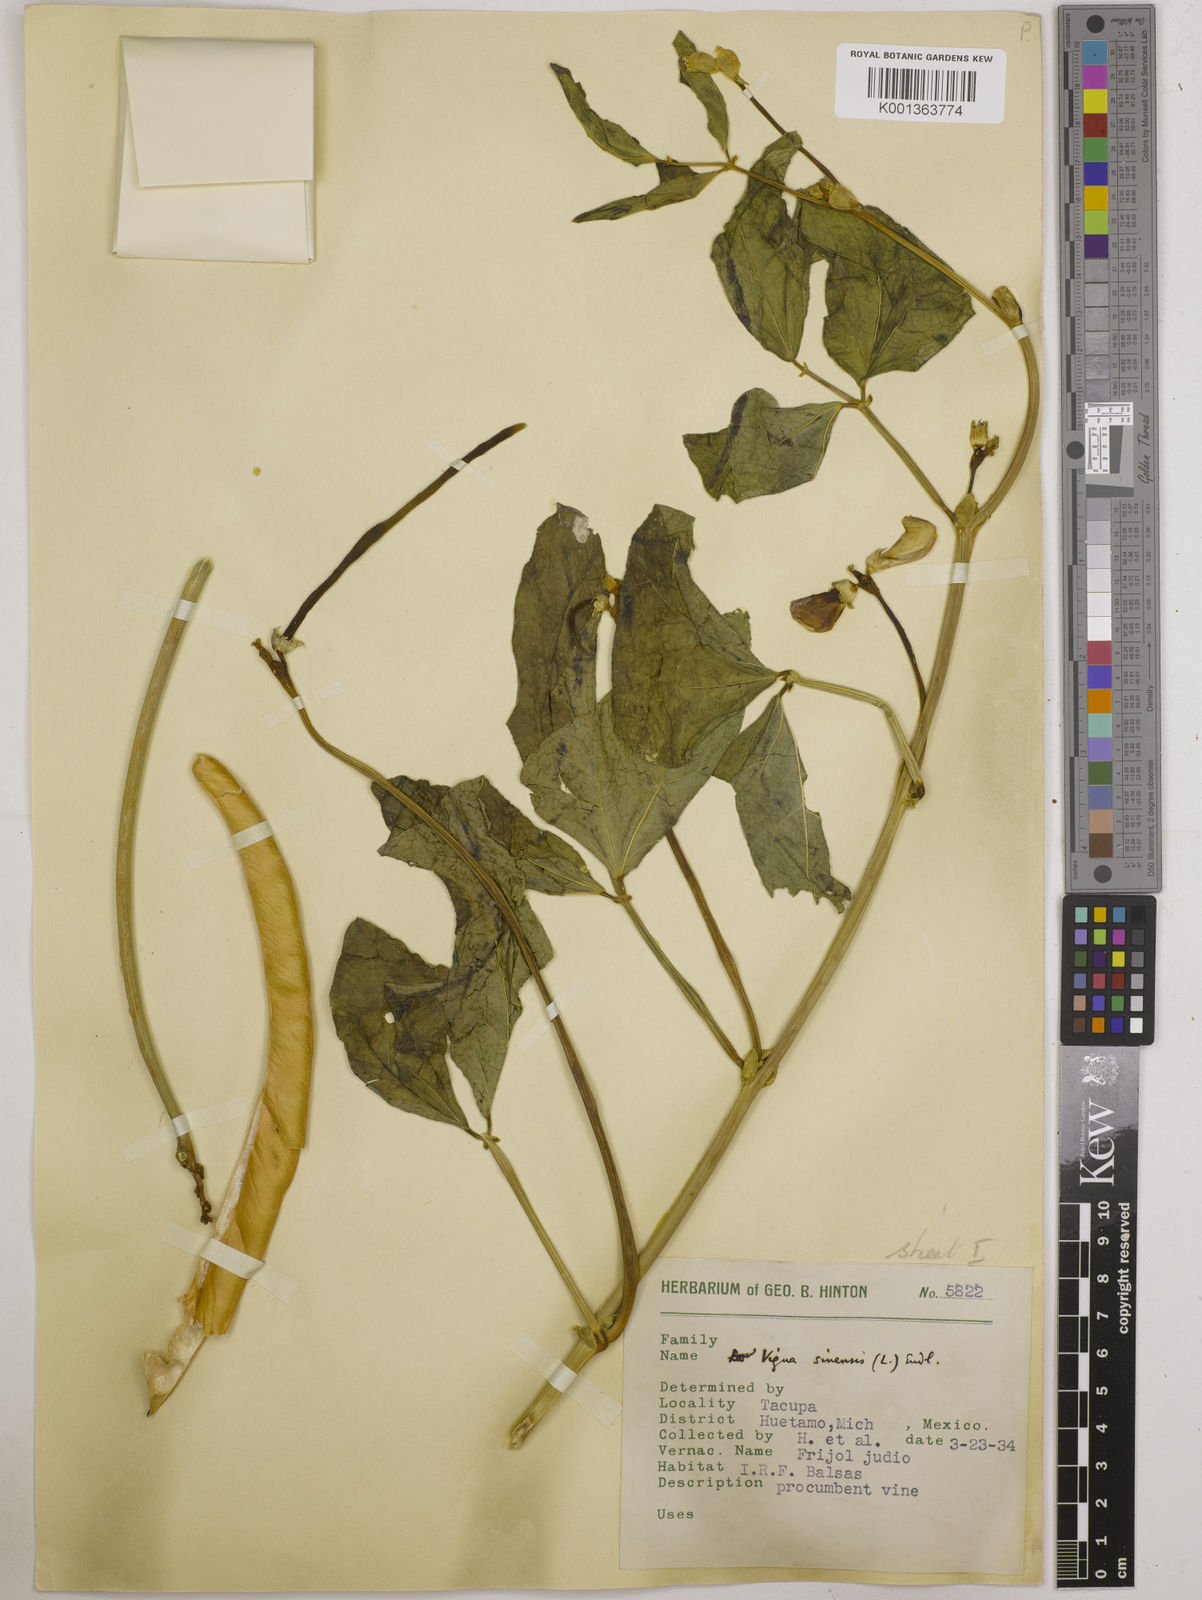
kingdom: Plantae
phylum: Tracheophyta
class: Magnoliopsida
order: Fabales
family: Fabaceae
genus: Vigna
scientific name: Vigna unguiculata
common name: Cowpea
